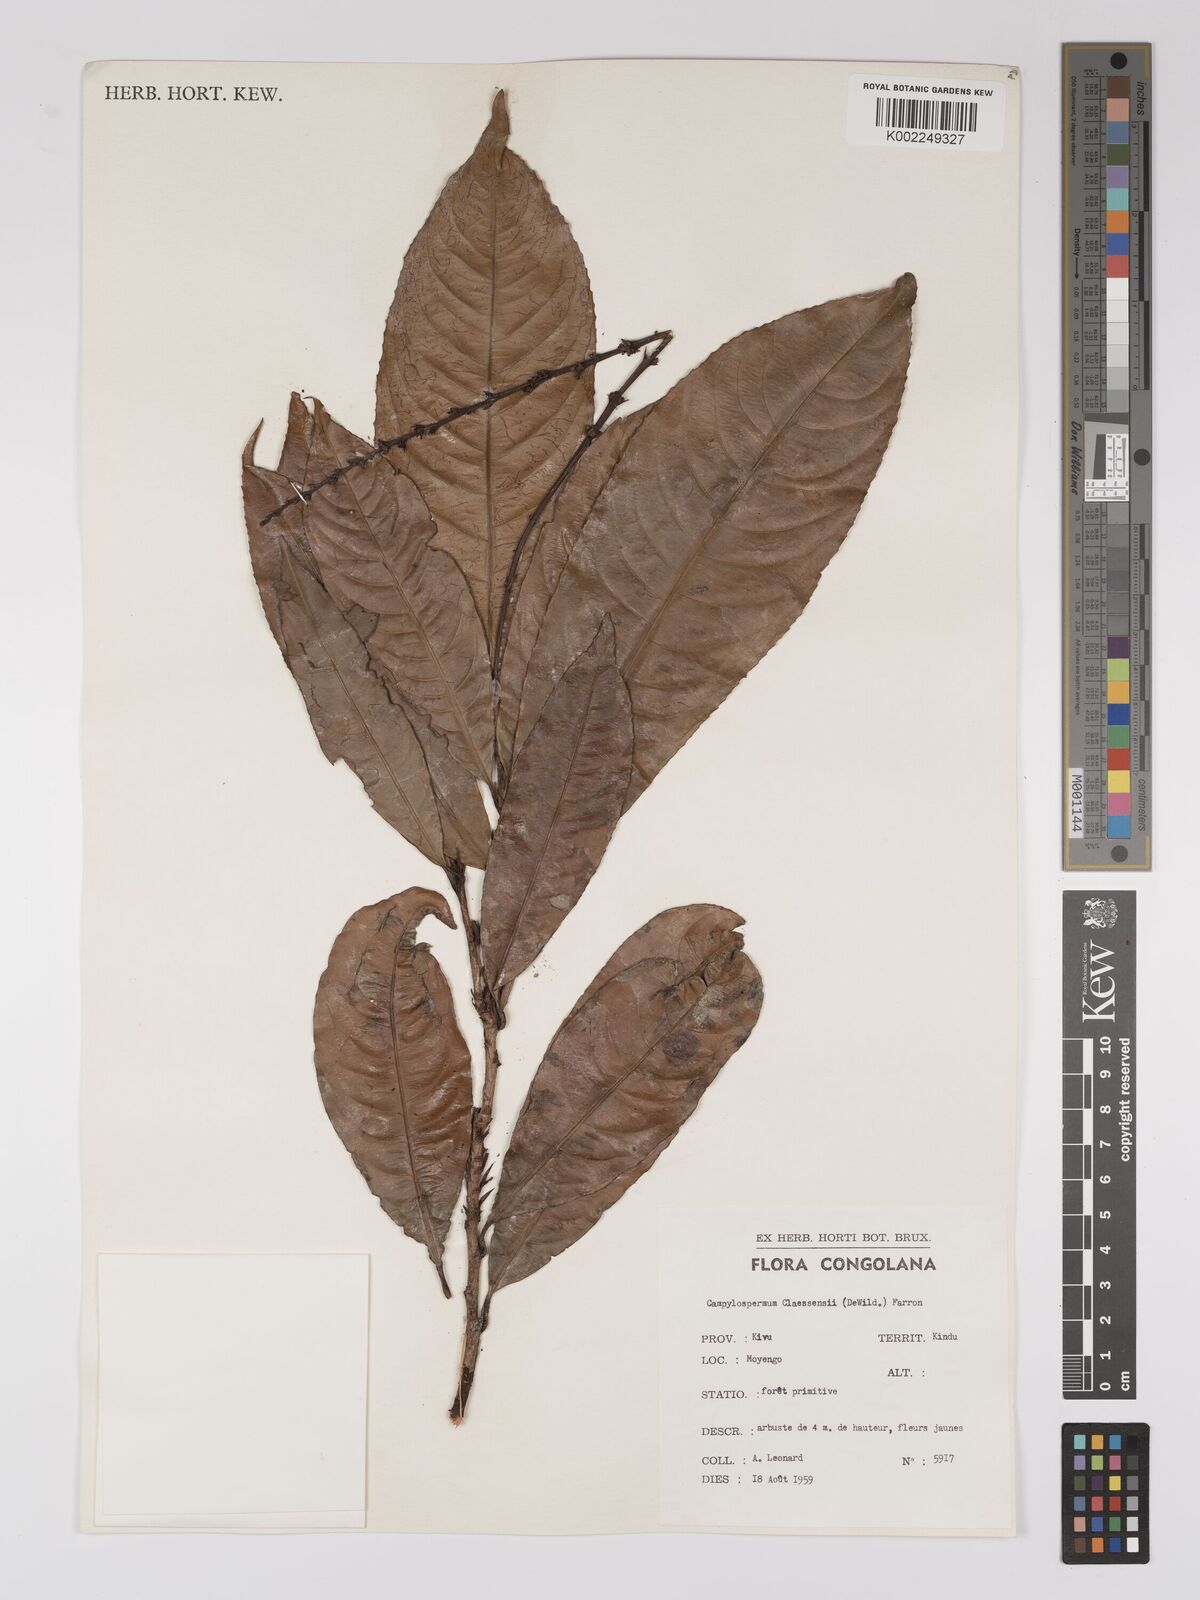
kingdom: Plantae
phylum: Tracheophyta
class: Magnoliopsida
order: Malpighiales
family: Ochnaceae
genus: Campylospermum
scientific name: Campylospermum claessensii
